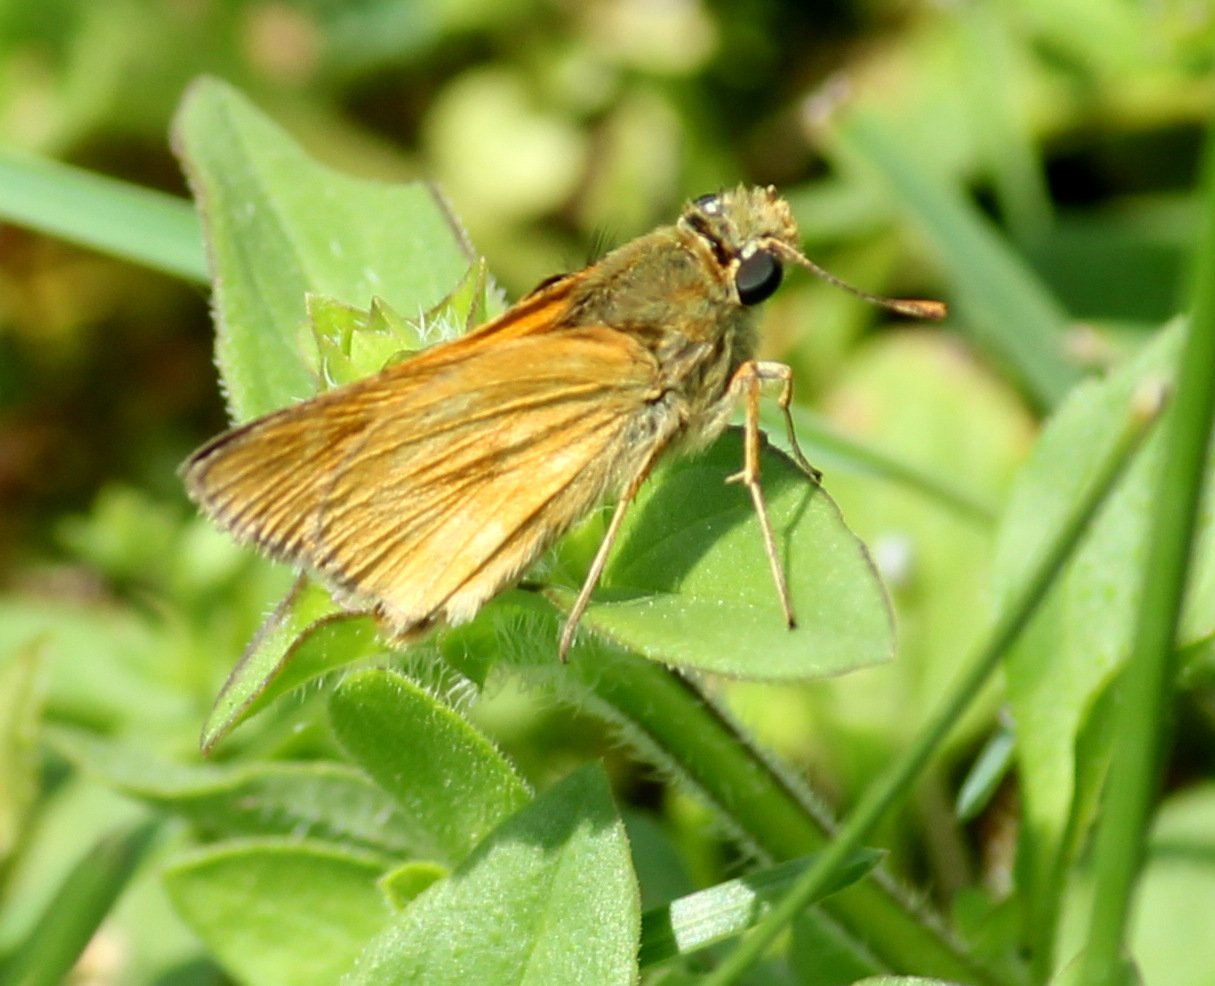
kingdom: Animalia
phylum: Arthropoda
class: Insecta
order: Lepidoptera
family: Hesperiidae
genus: Polites
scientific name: Polites
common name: Long Dash Skipper
